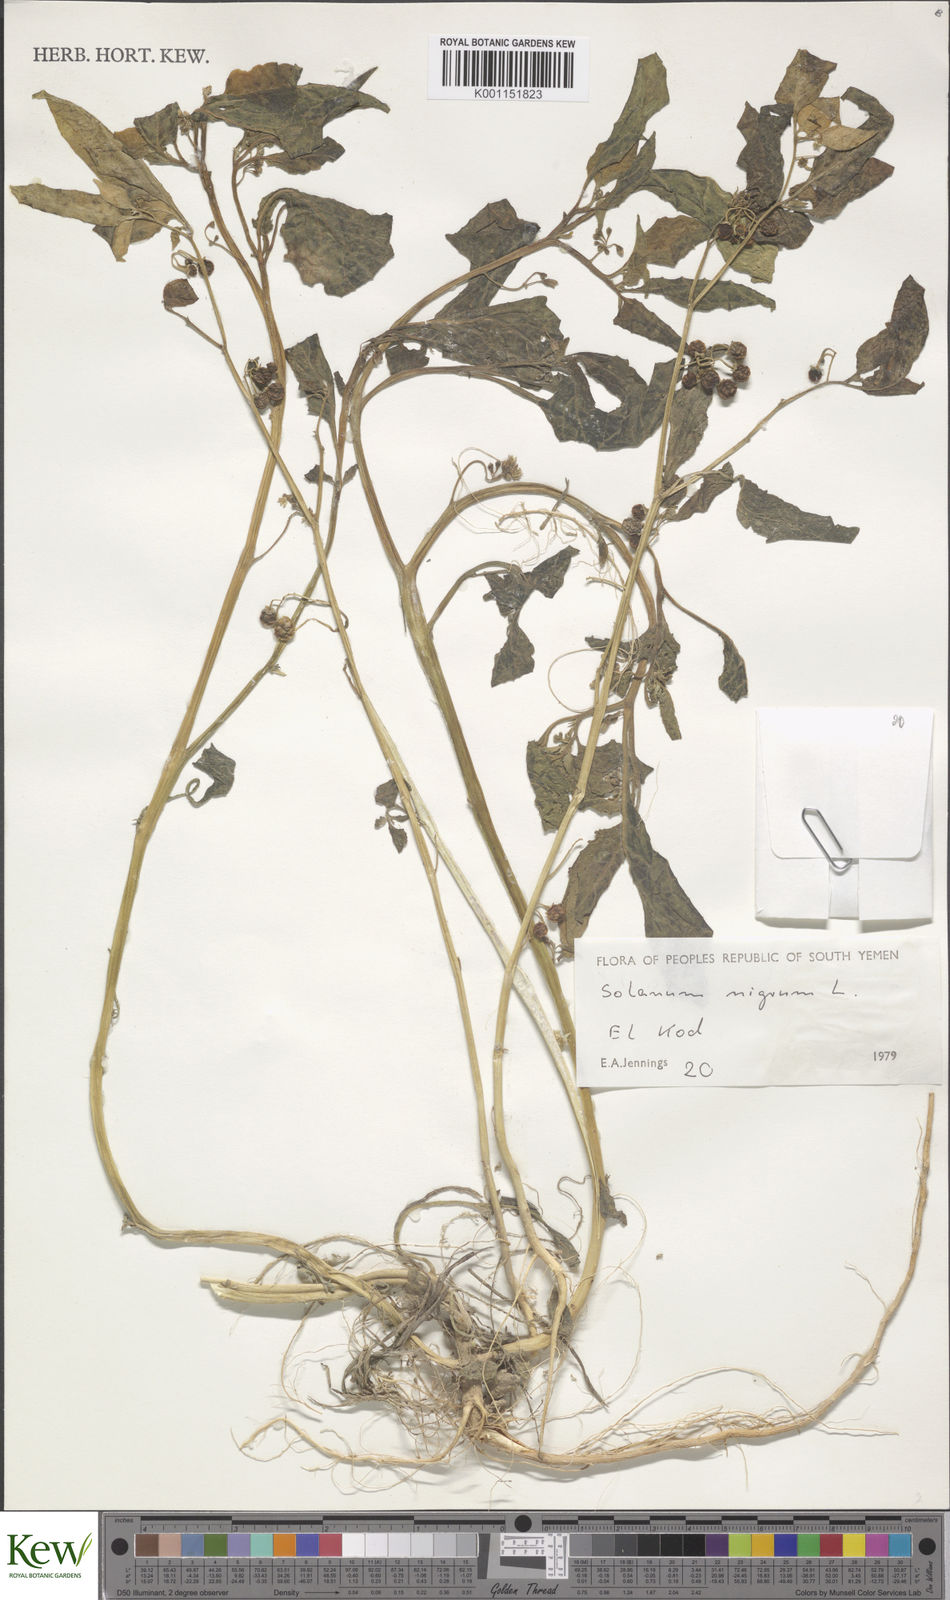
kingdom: Plantae
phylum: Tracheophyta
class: Magnoliopsida
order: Solanales
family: Solanaceae
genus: Solanum
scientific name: Solanum nigrum
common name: Black nightshade
